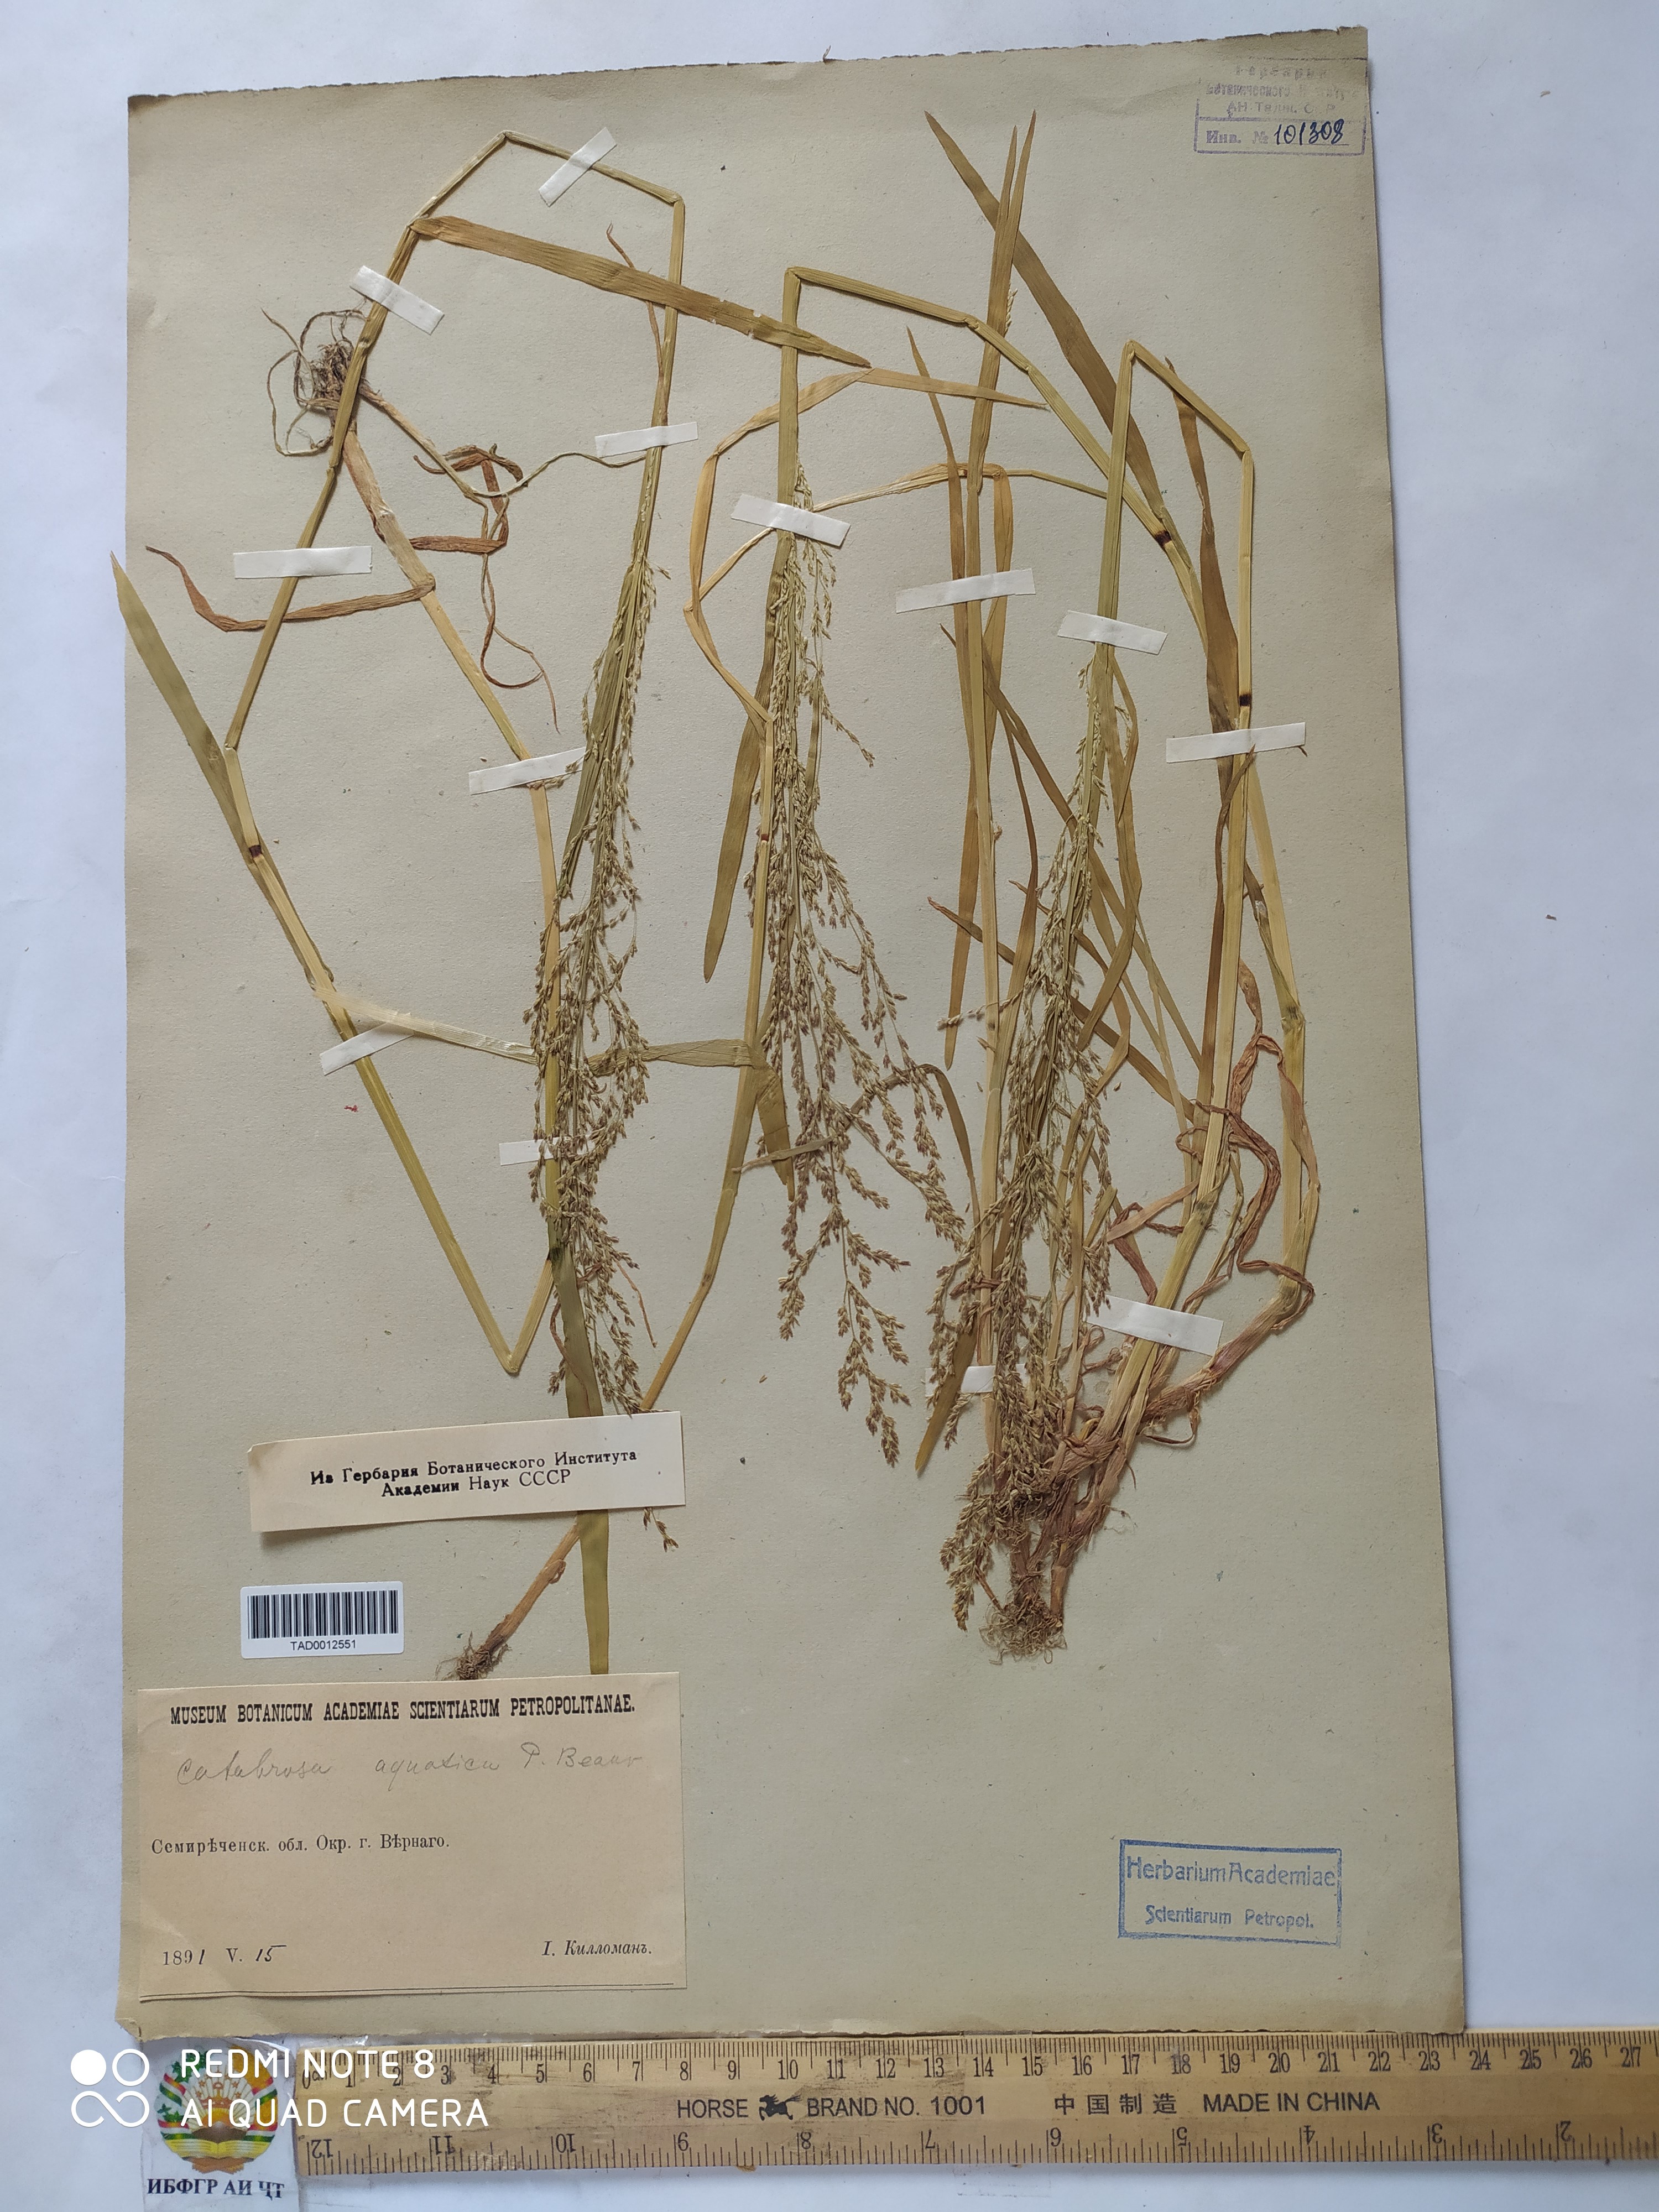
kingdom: Plantae
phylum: Tracheophyta
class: Liliopsida
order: Poales
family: Poaceae
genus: Catabrosa
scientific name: Catabrosa aquatica
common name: Whorl-grass
